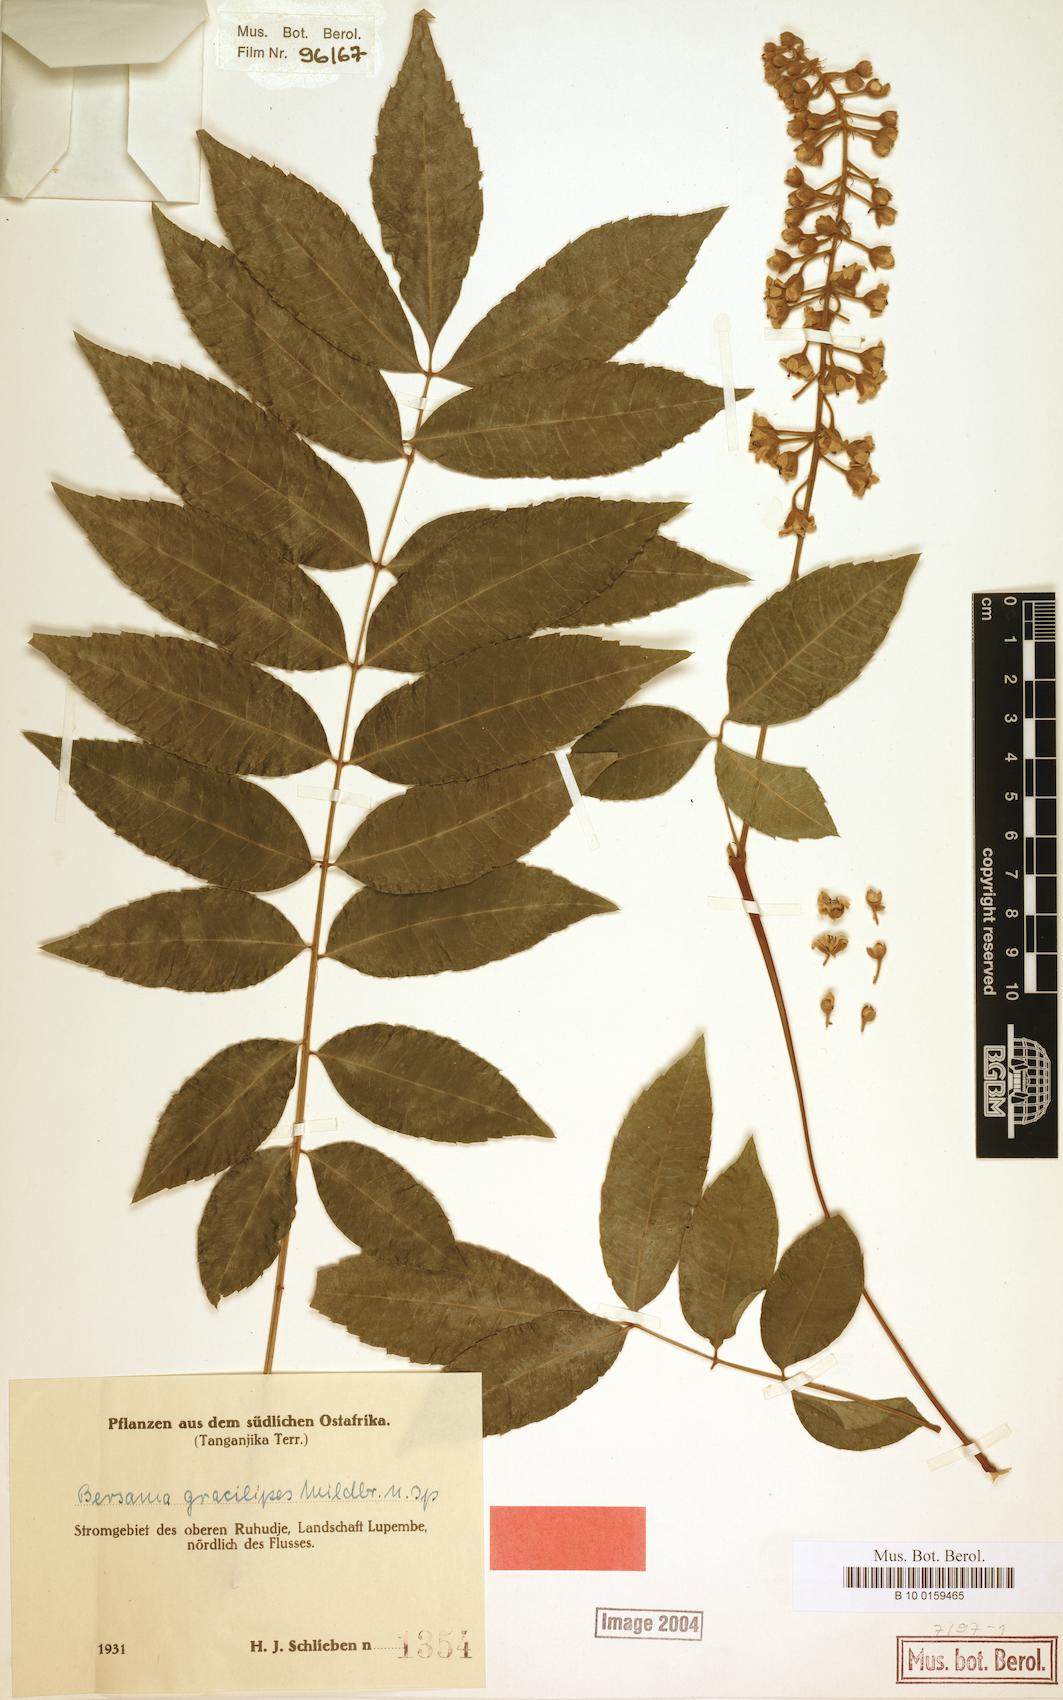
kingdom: Plantae
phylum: Tracheophyta
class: Magnoliopsida
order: Geraniales
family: Melianthaceae
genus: Bersama
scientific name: Bersama abyssinica
